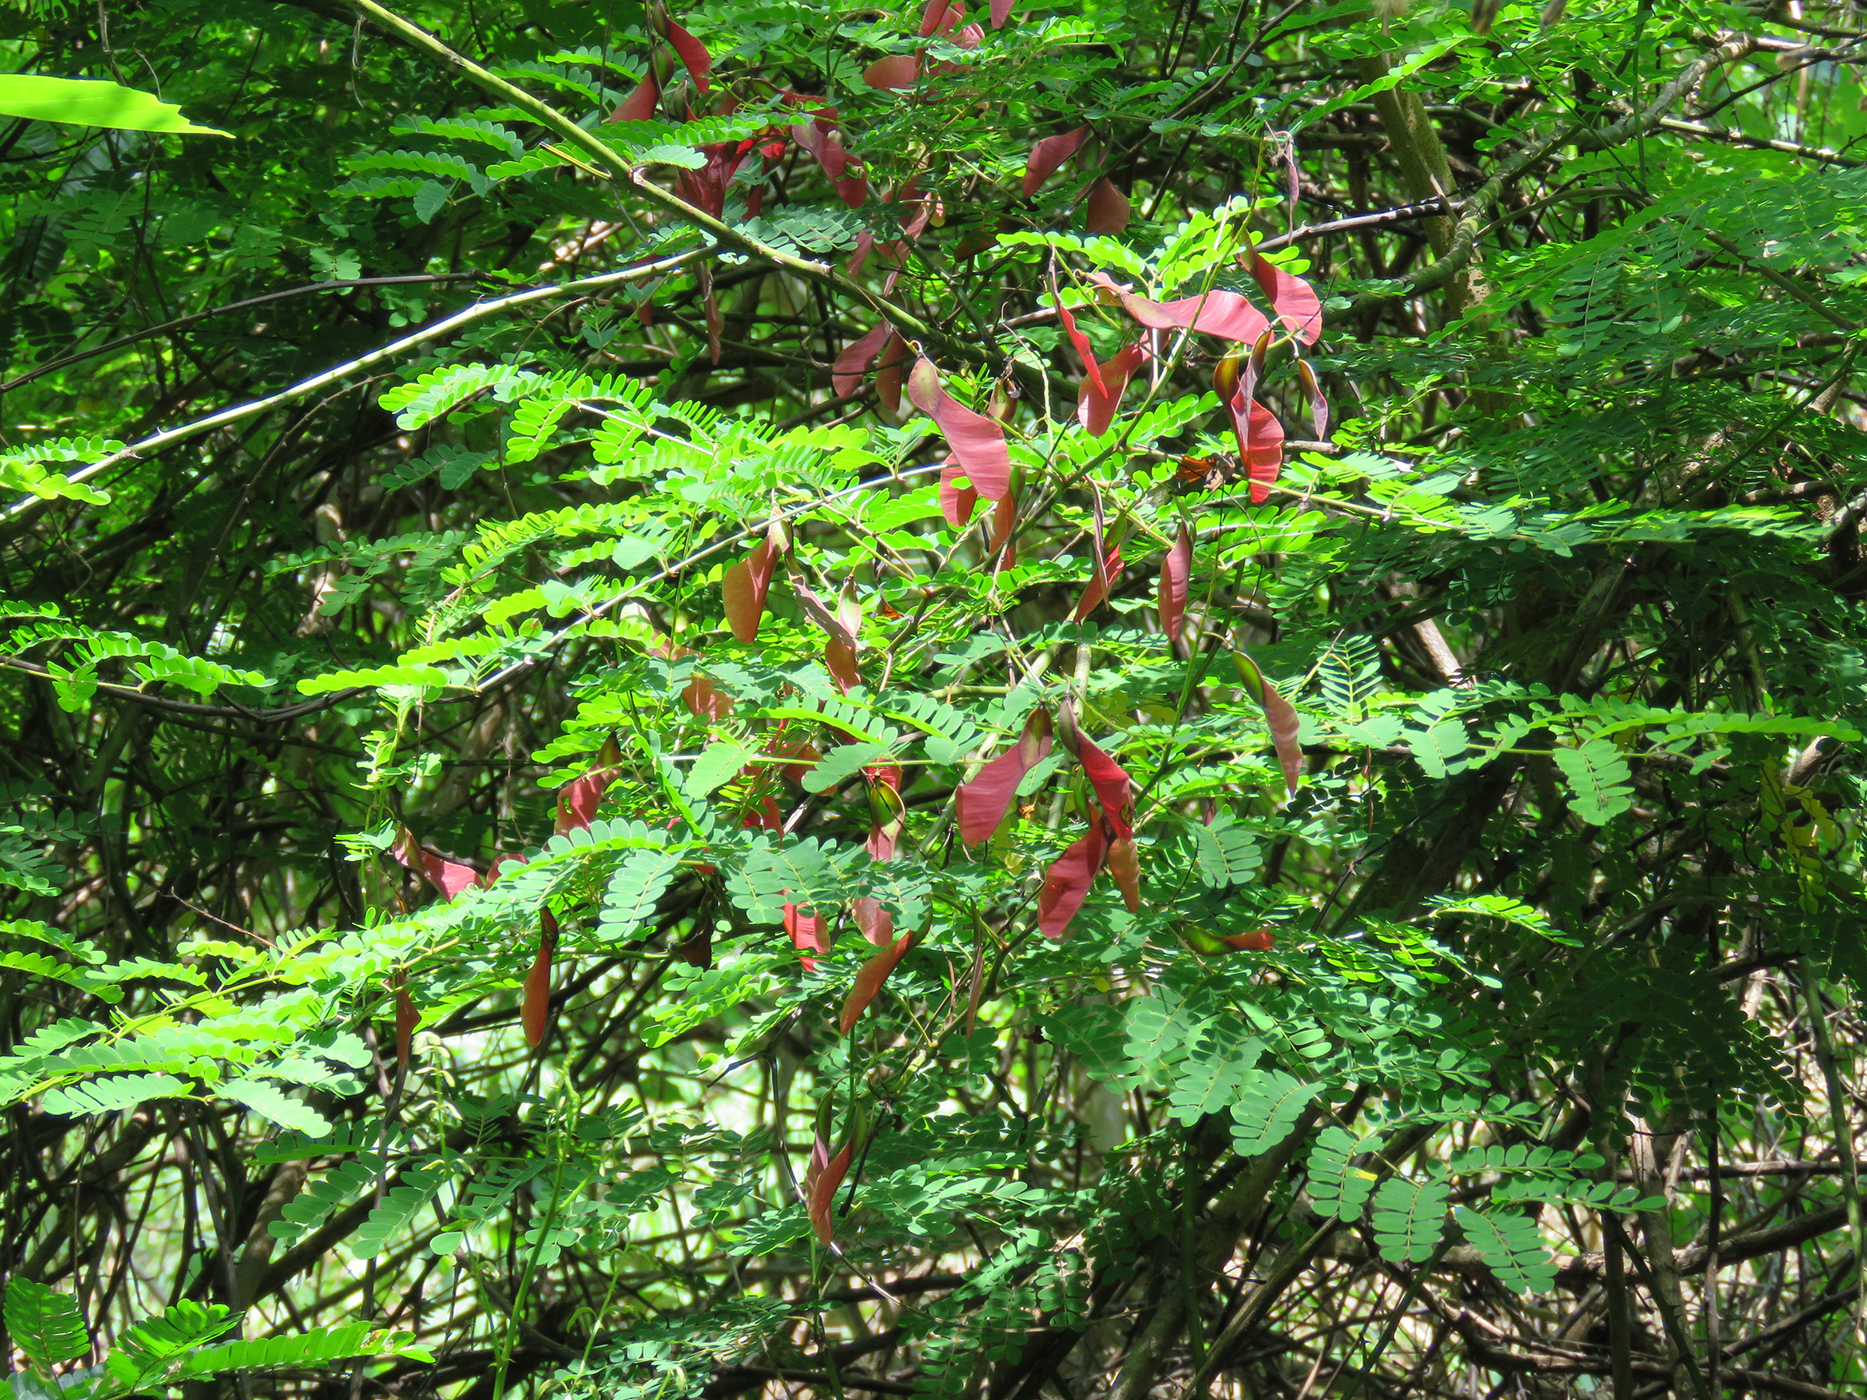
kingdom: Plantae
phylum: Tracheophyta
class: Magnoliopsida
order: Fabales
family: Fabaceae
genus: Pterolobium
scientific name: Pterolobium macropterum
